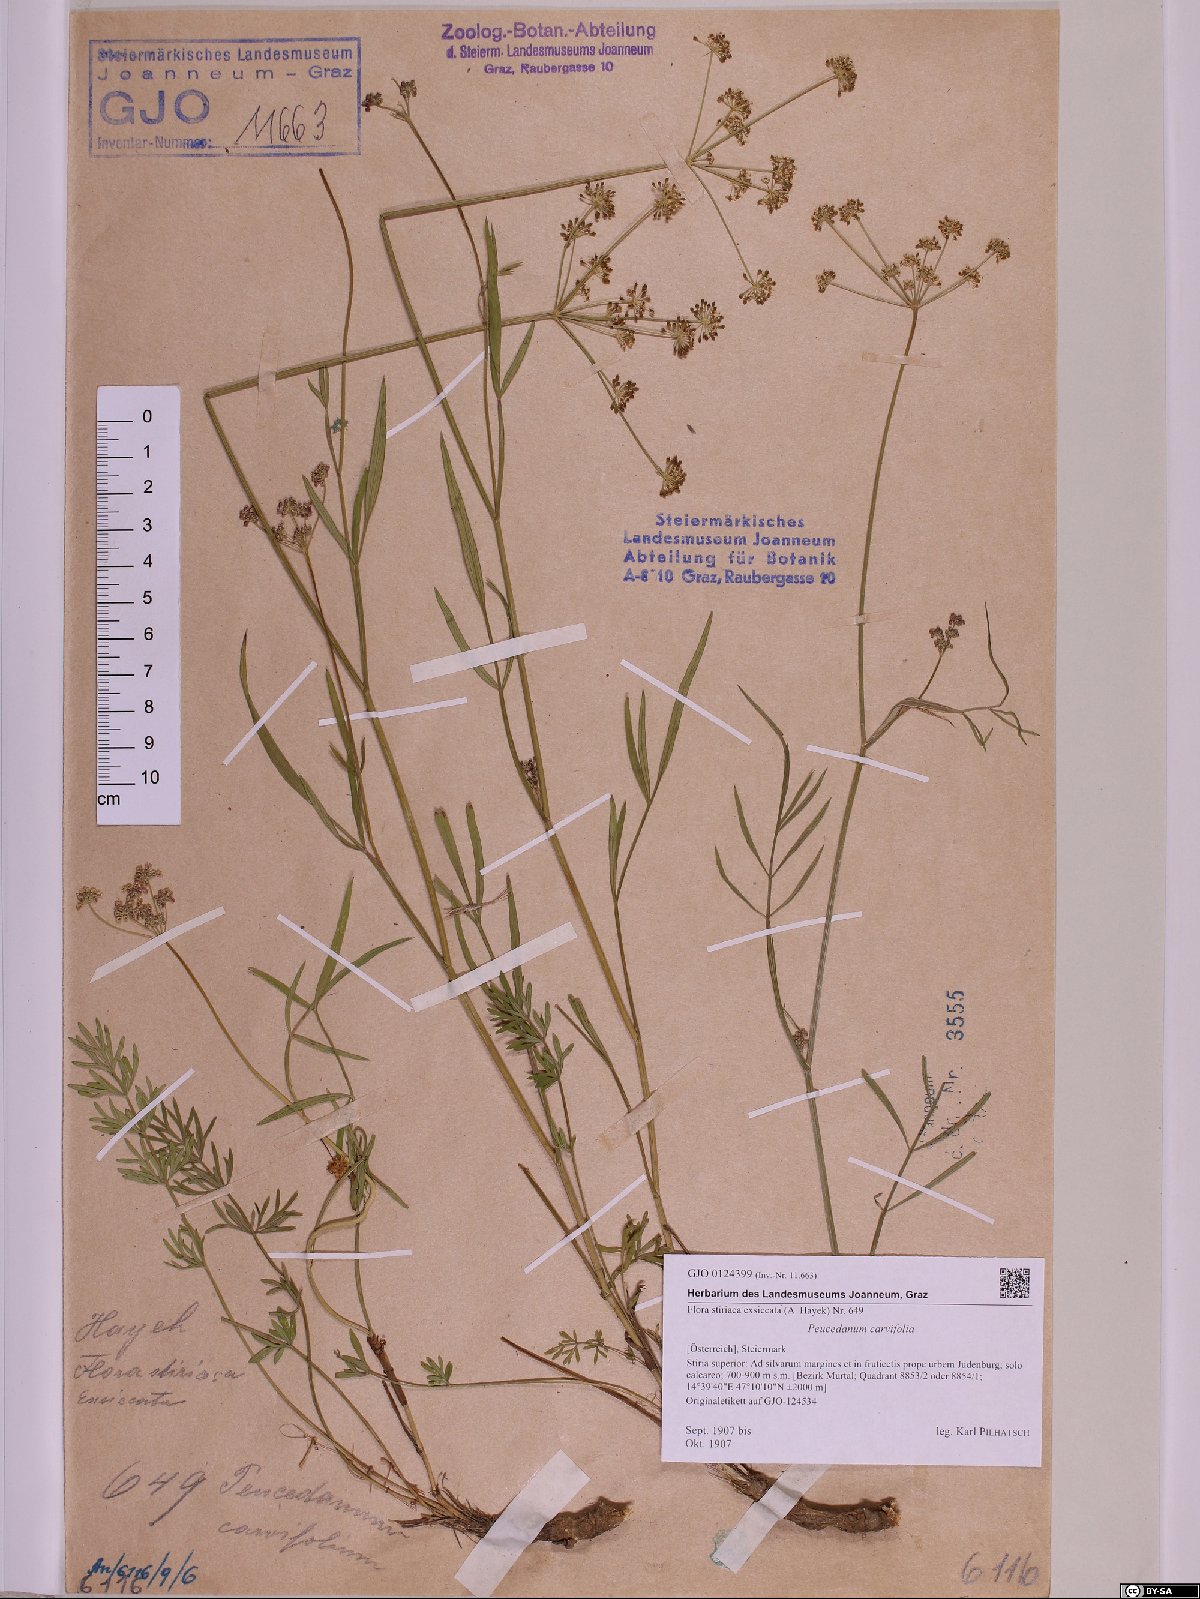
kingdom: Plantae
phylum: Tracheophyta
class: Magnoliopsida
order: Apiales
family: Apiaceae
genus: Dichoropetalum
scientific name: Dichoropetalum carvifolia
